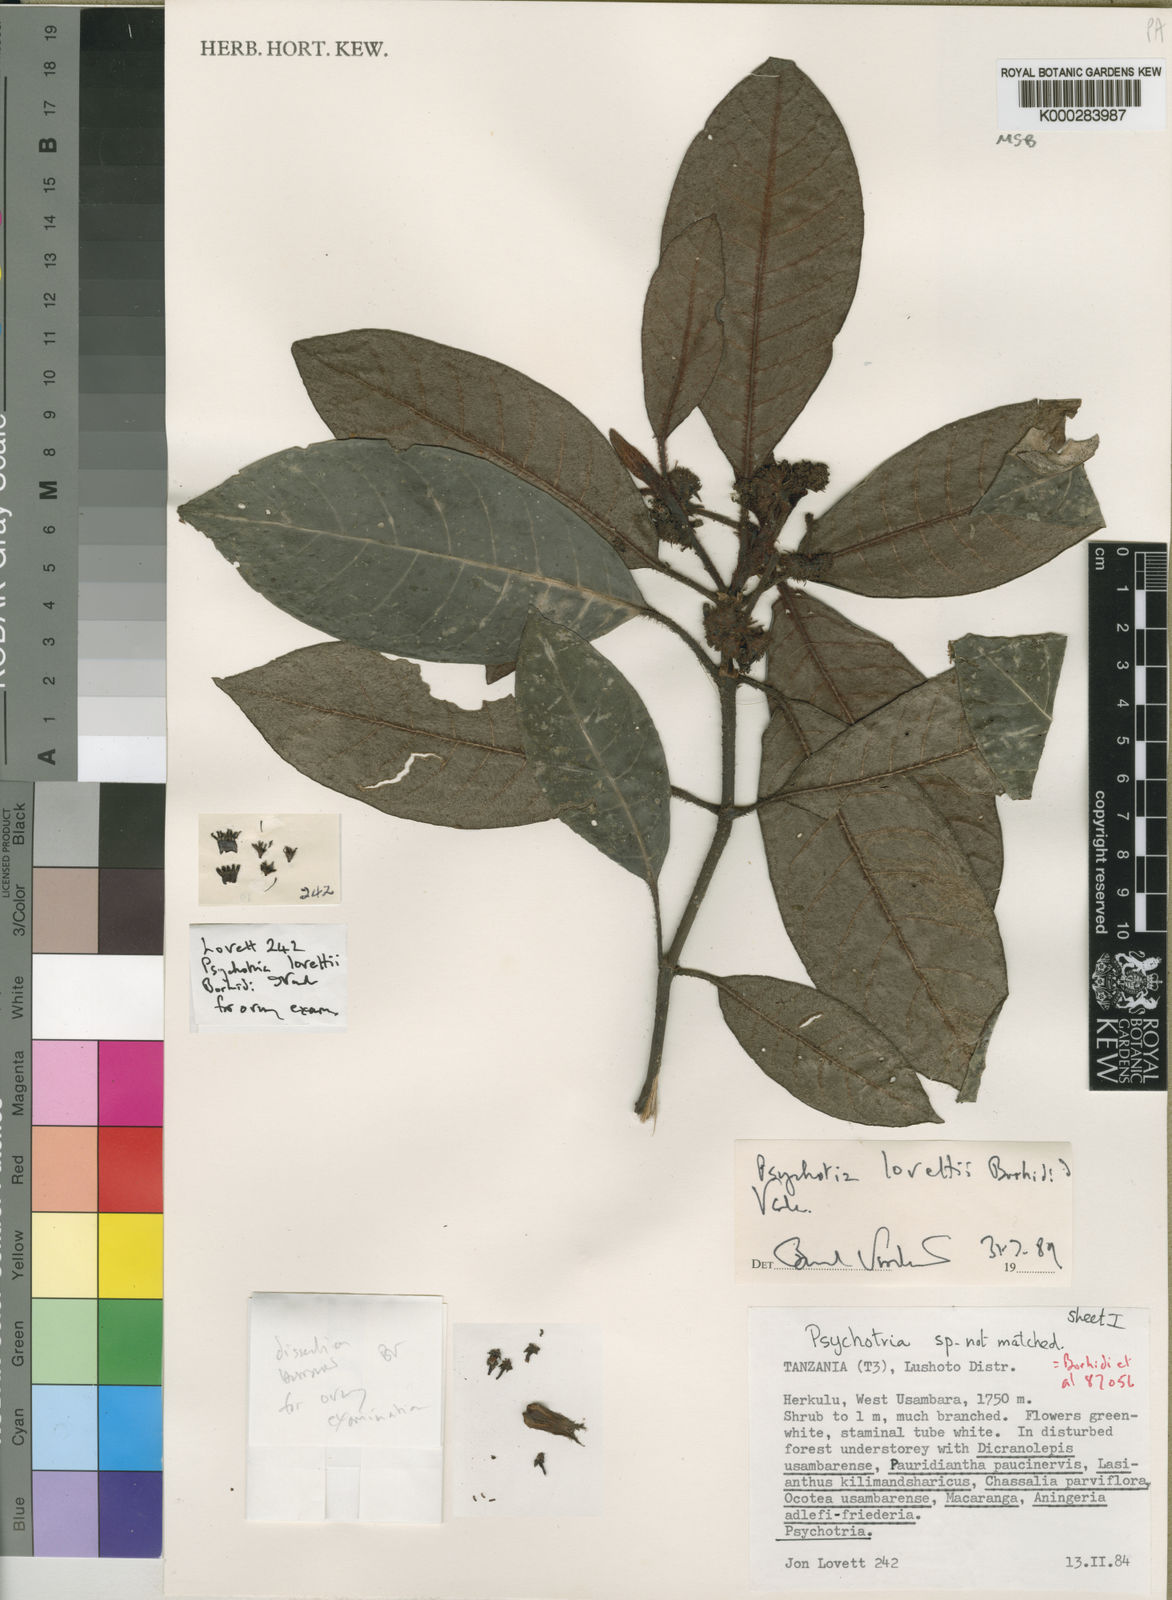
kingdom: Plantae
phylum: Tracheophyta
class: Magnoliopsida
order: Gentianales
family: Rubiaceae
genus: Psychotria
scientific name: Psychotria lovettii
